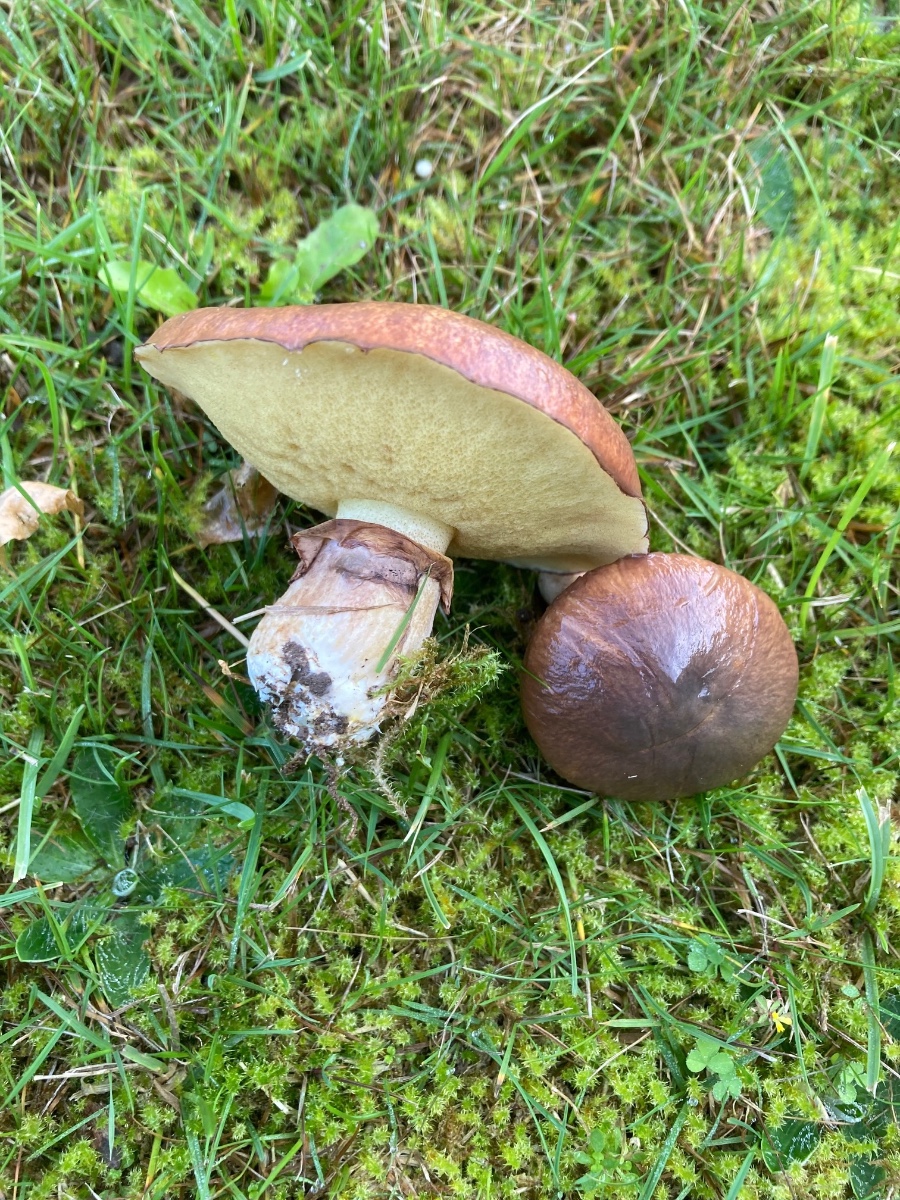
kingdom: Fungi
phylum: Basidiomycota
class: Agaricomycetes
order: Boletales
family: Suillaceae
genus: Suillus
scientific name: Suillus luteus
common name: brungul slimrørhat
